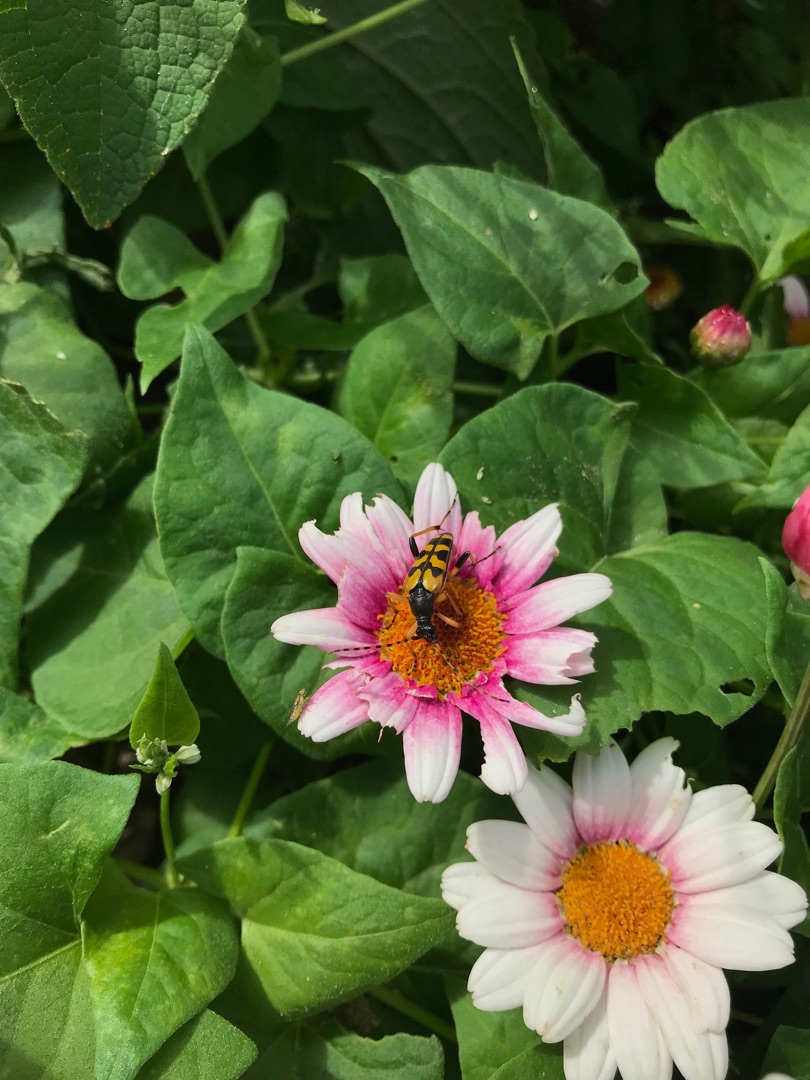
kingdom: Animalia
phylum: Arthropoda
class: Insecta
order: Coleoptera
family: Cerambycidae
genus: Rutpela
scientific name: Rutpela maculata
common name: Sydlig blomsterbuk
